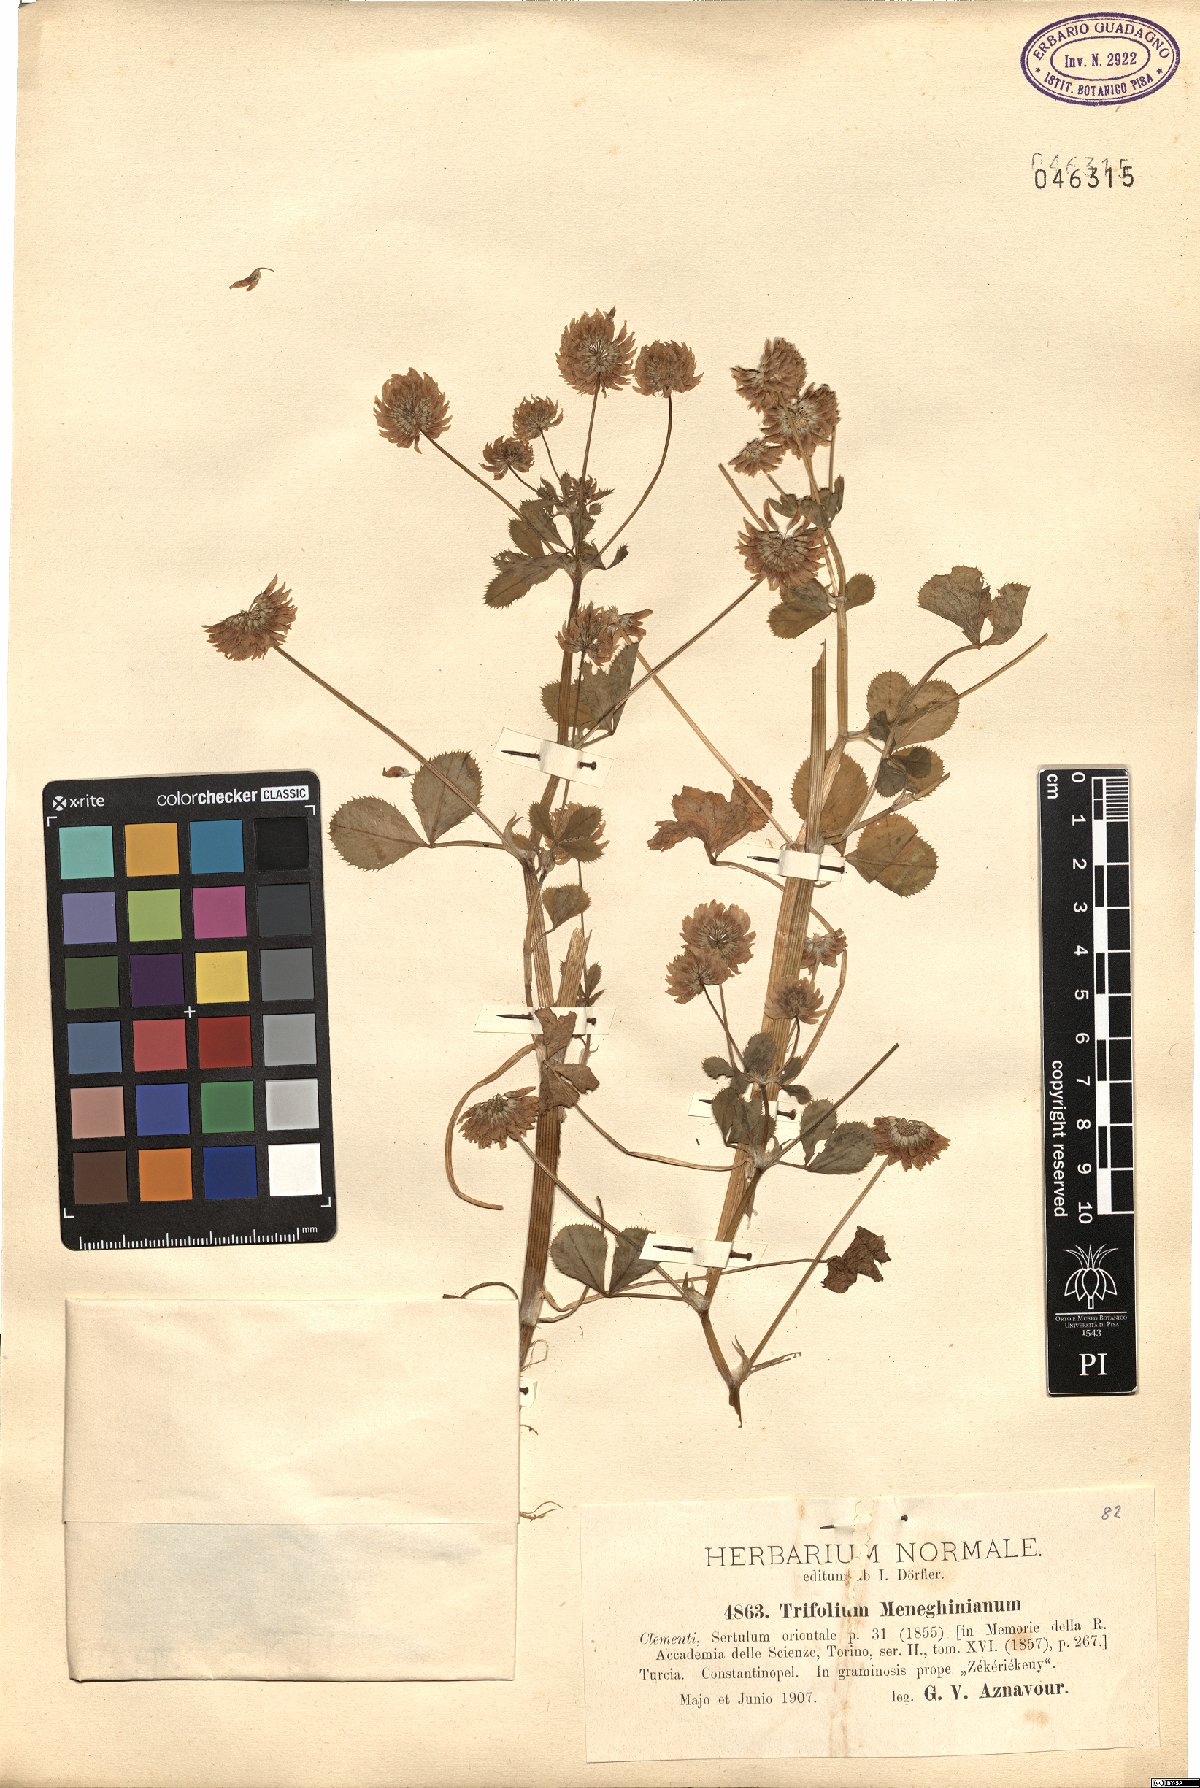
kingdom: Plantae
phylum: Tracheophyta
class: Magnoliopsida
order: Fabales
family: Fabaceae
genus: Trifolium
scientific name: Trifolium nigrescens
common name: Small white clover
